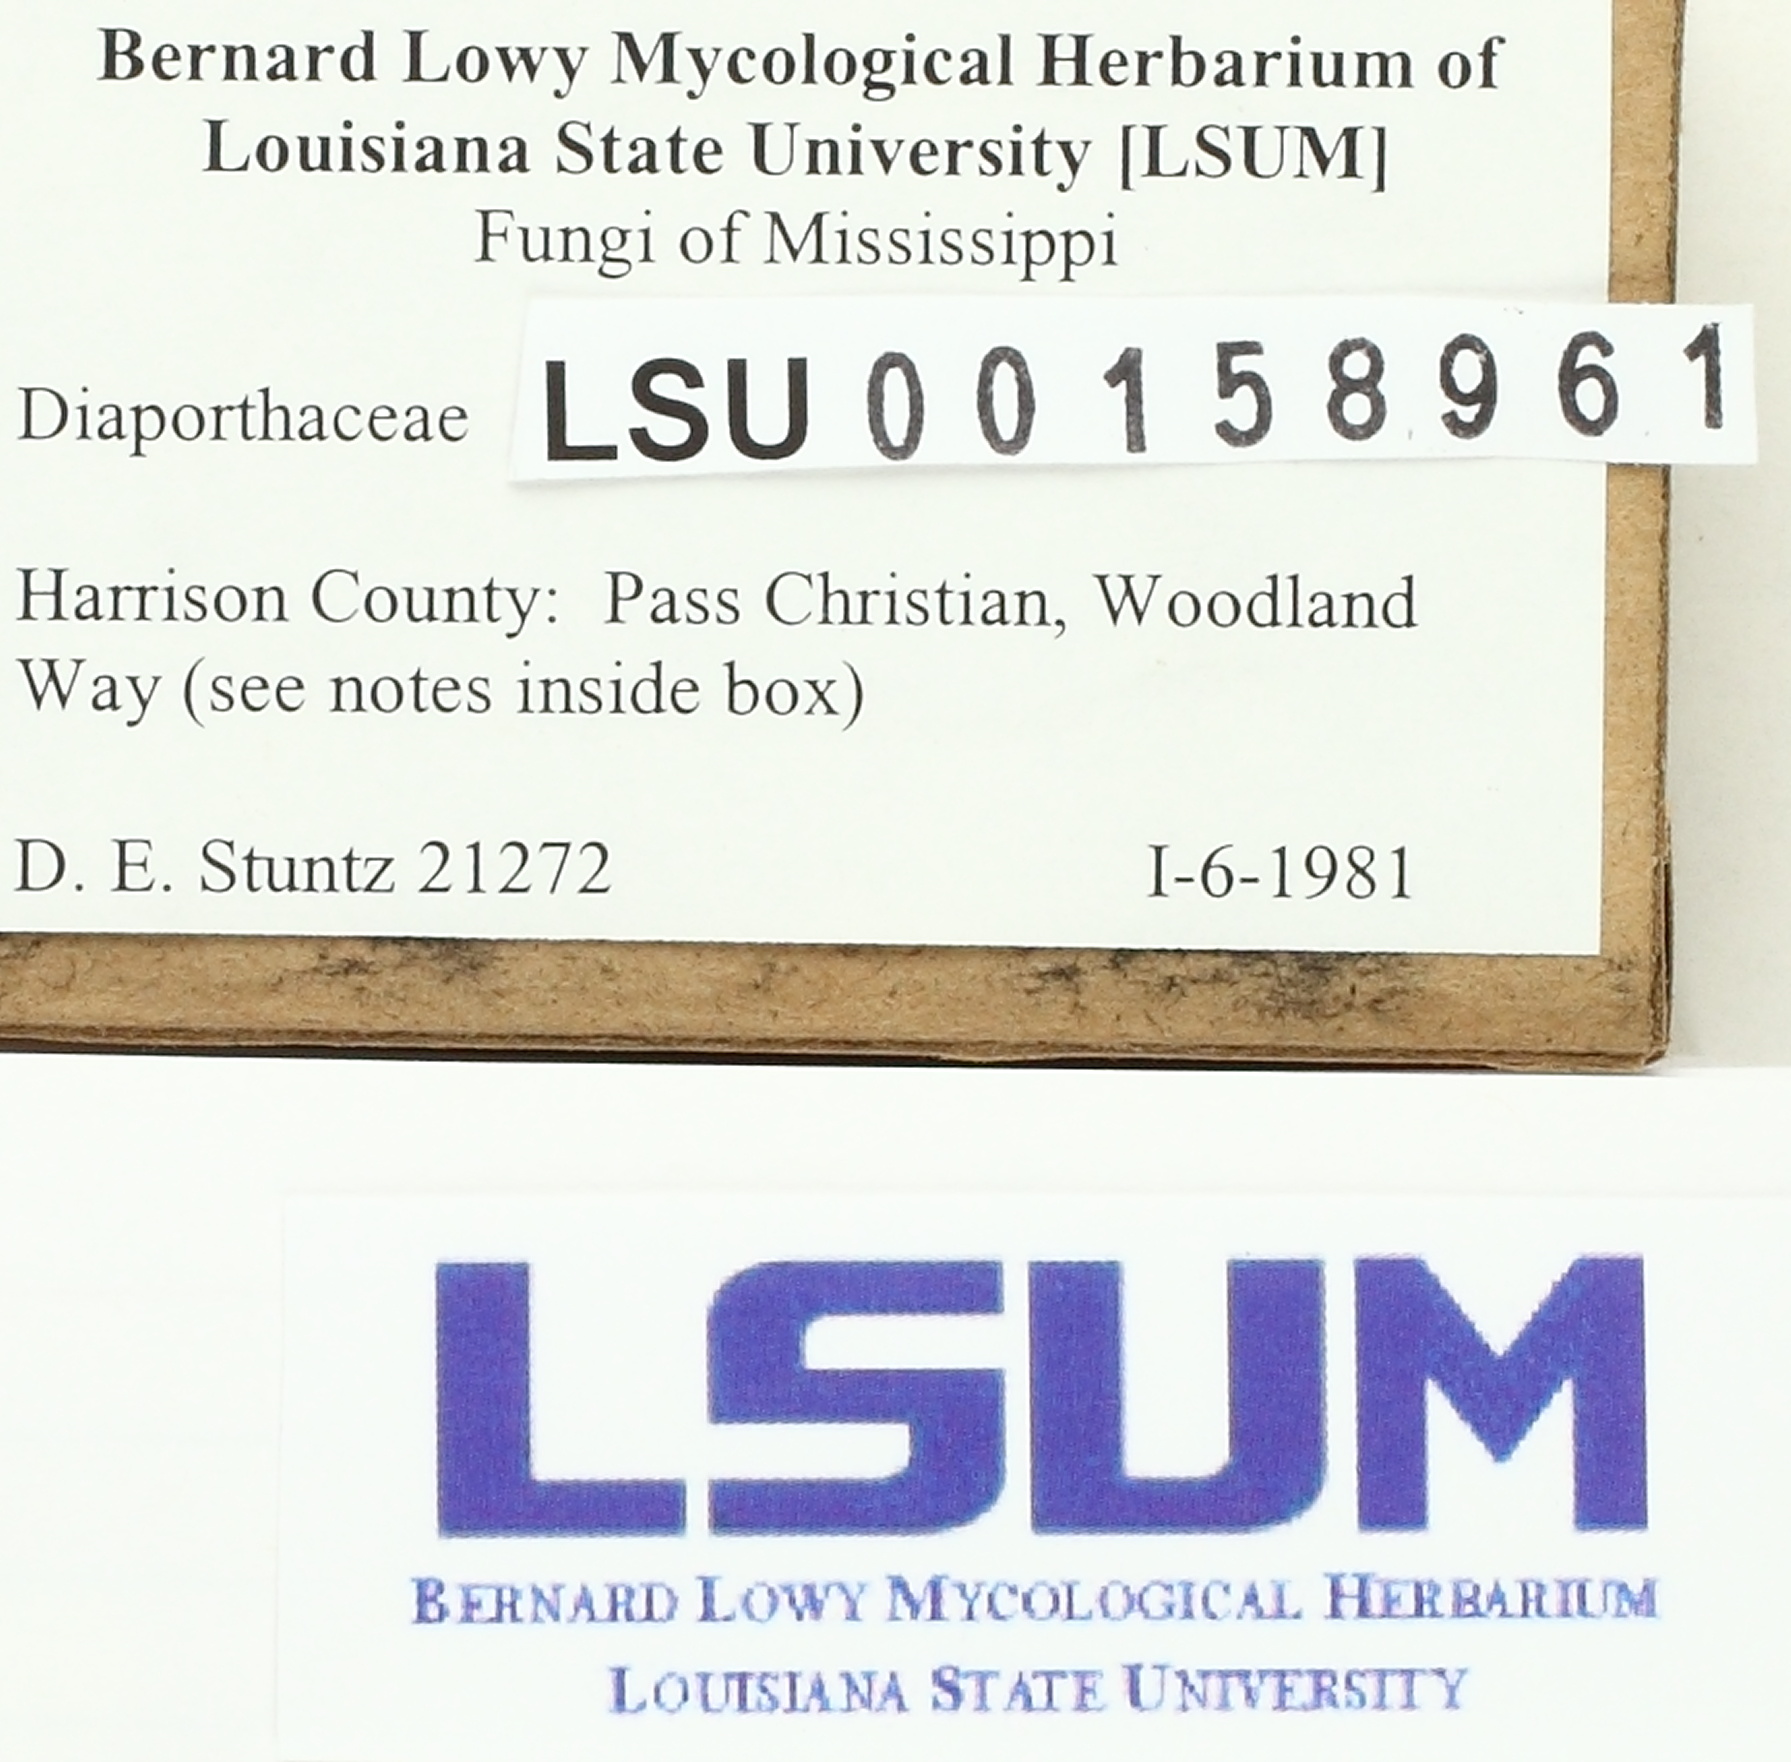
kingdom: Fungi
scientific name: Fungi
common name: Fungi
